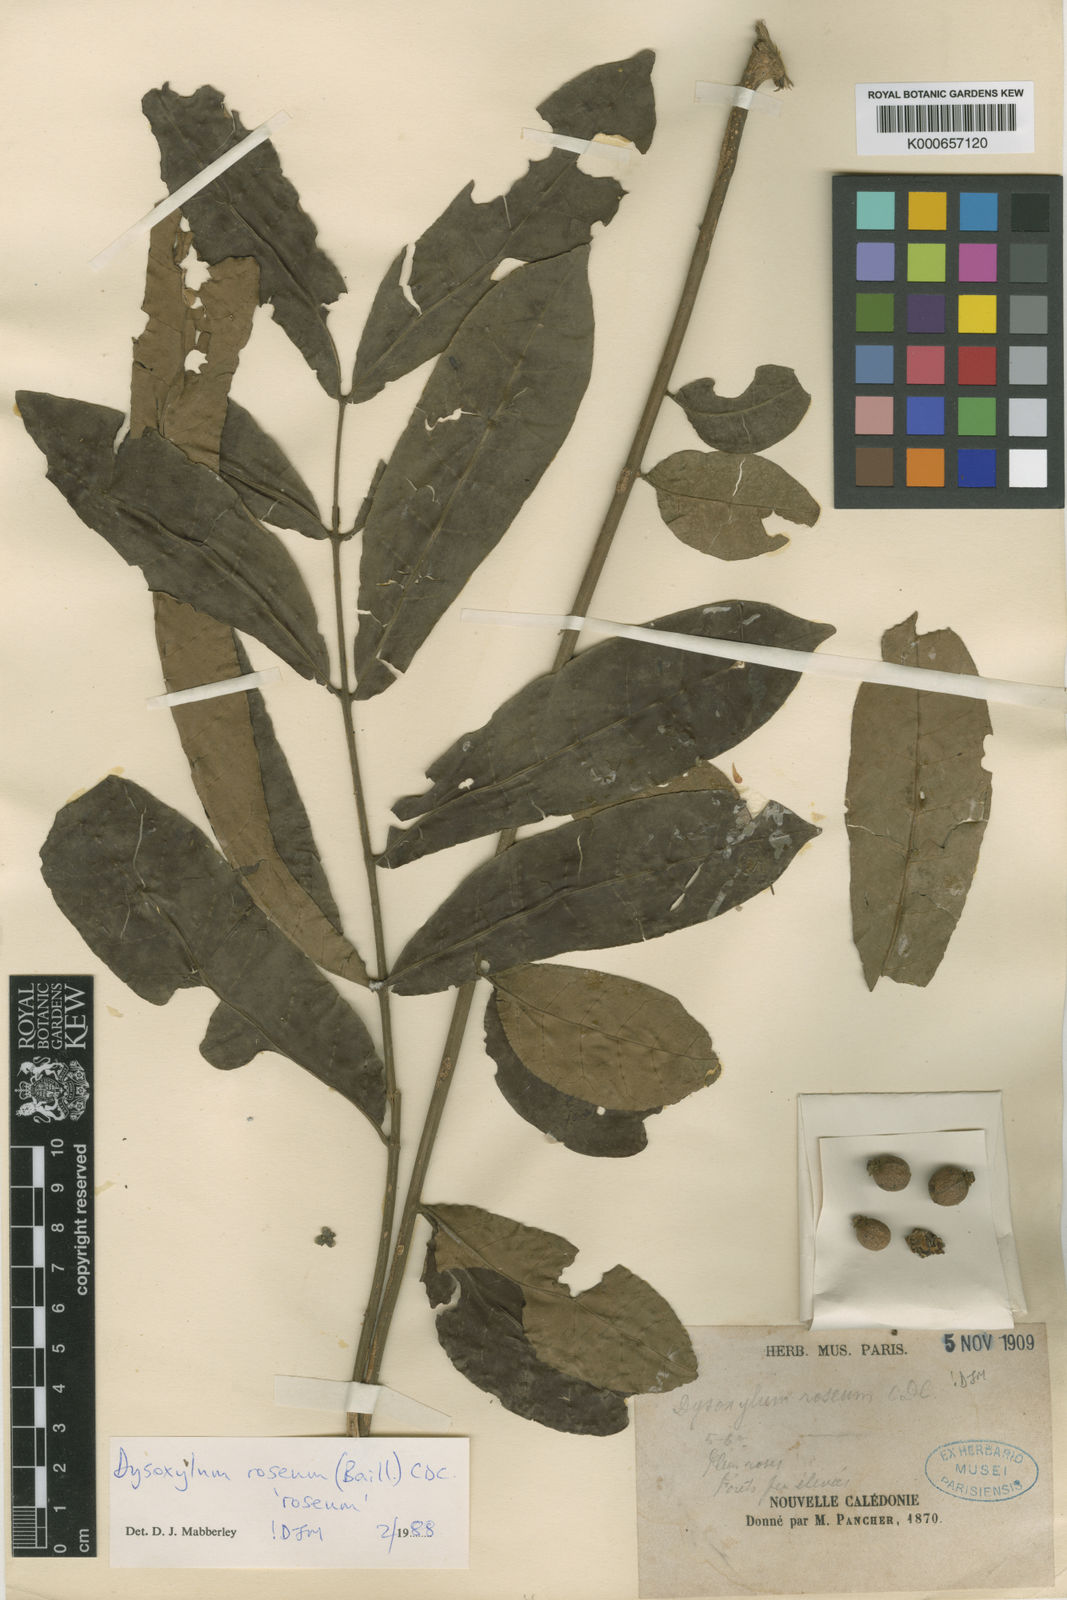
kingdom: Plantae
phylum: Tracheophyta
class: Magnoliopsida
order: Sapindales
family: Meliaceae
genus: Didymocheton
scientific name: Didymocheton roseus
